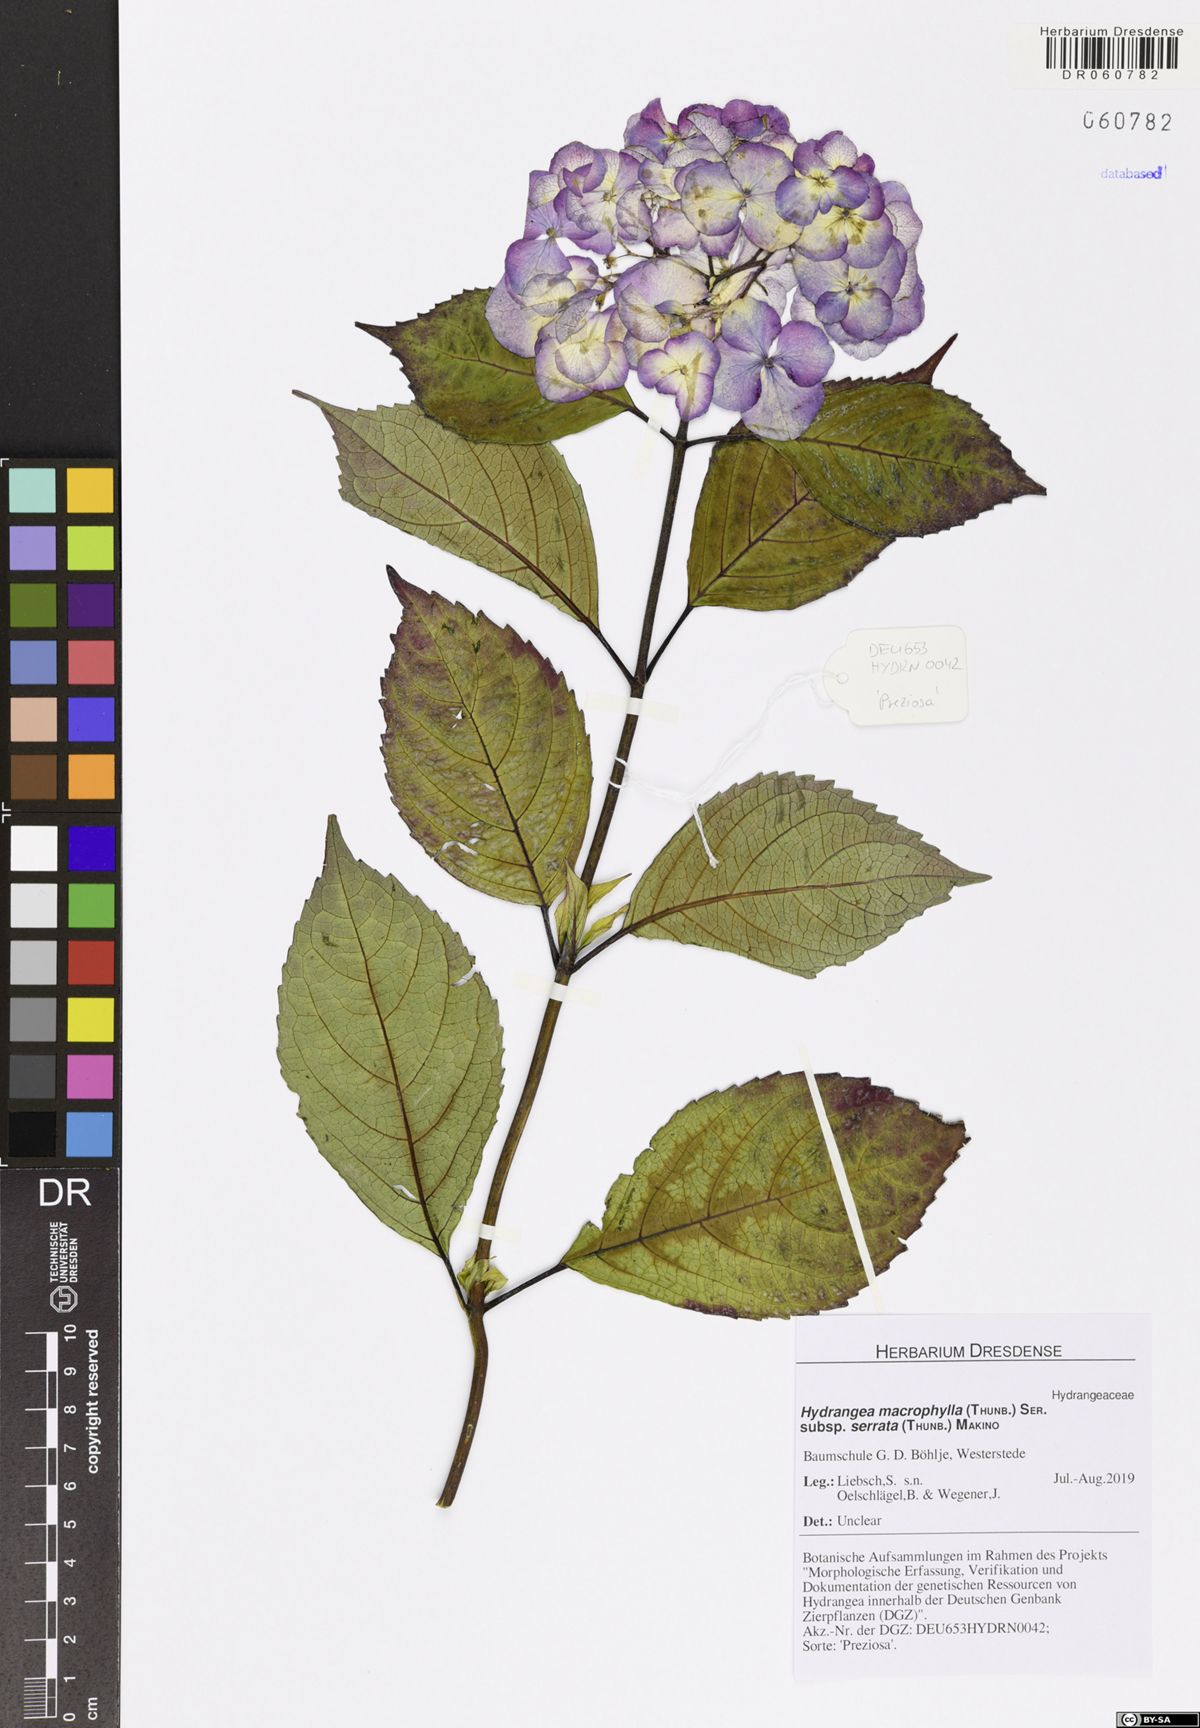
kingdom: Plantae
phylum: Tracheophyta
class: Magnoliopsida
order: Cornales
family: Hydrangeaceae
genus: Hydrangea
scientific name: Hydrangea serrata
